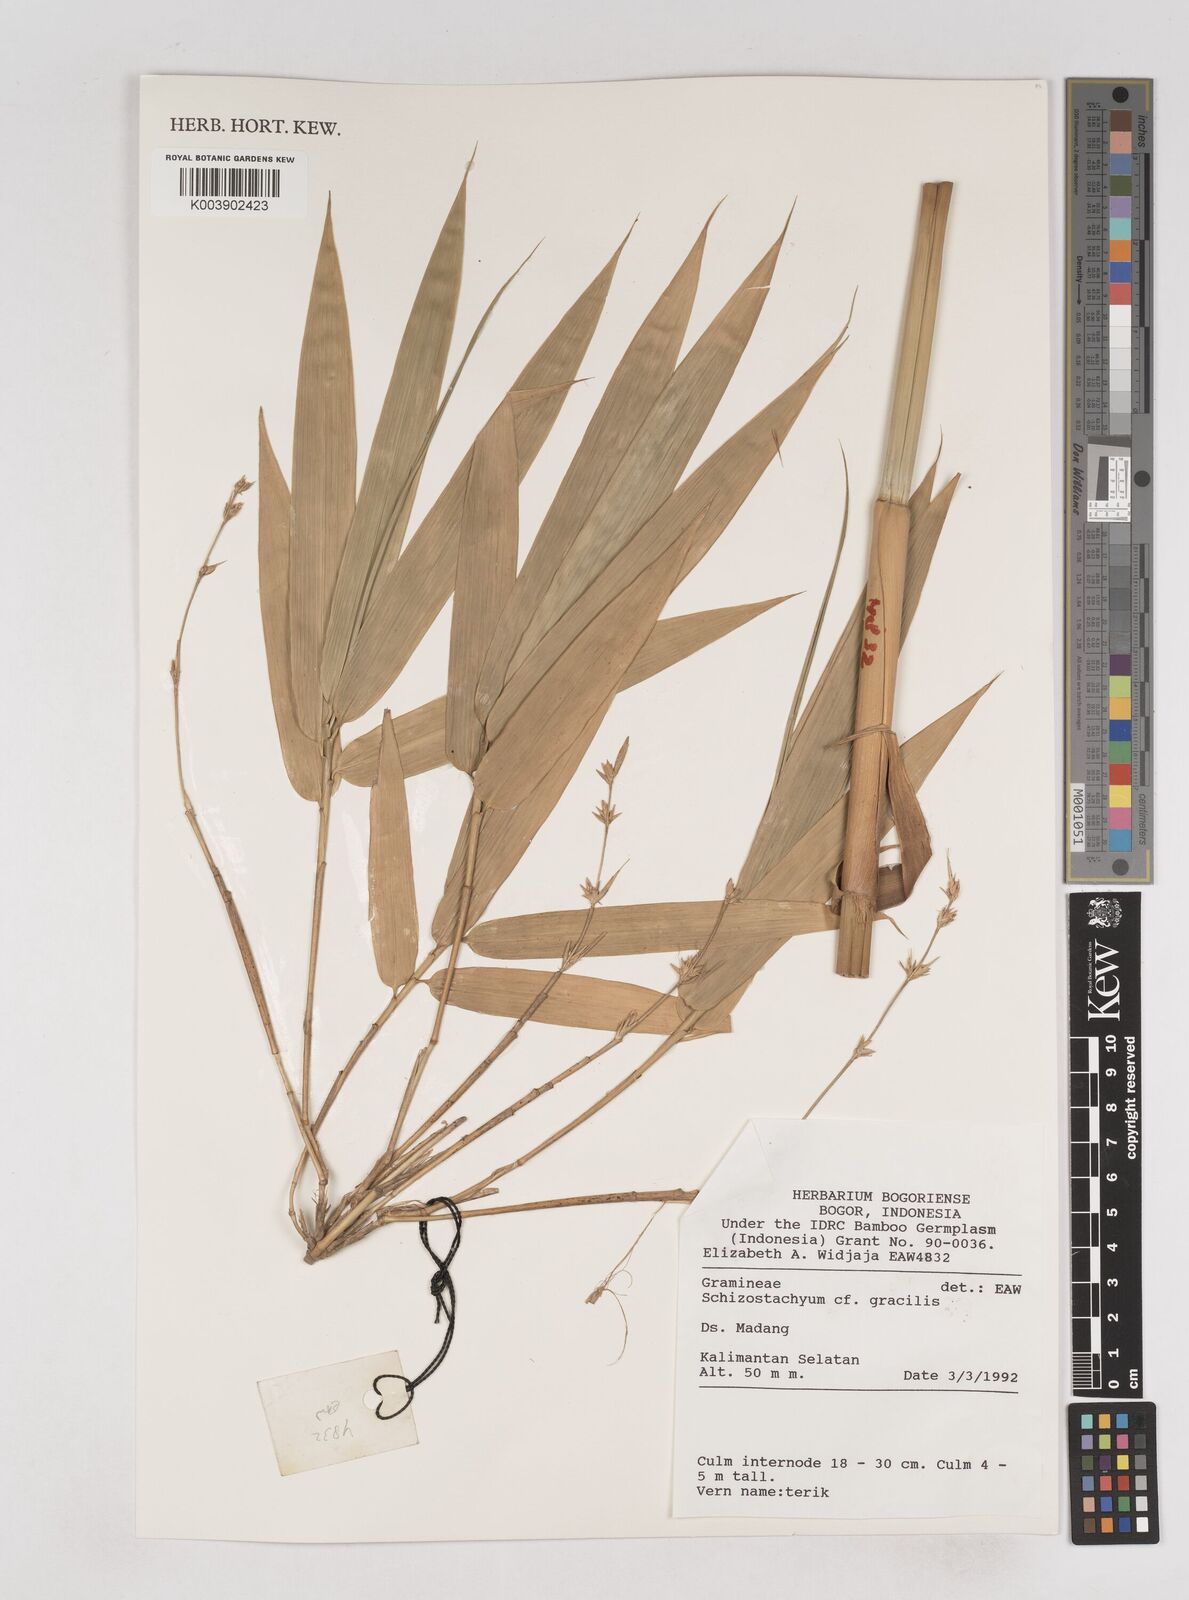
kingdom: Plantae
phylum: Tracheophyta
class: Liliopsida
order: Poales
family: Poaceae
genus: Schizostachyum
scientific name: Schizostachyum
